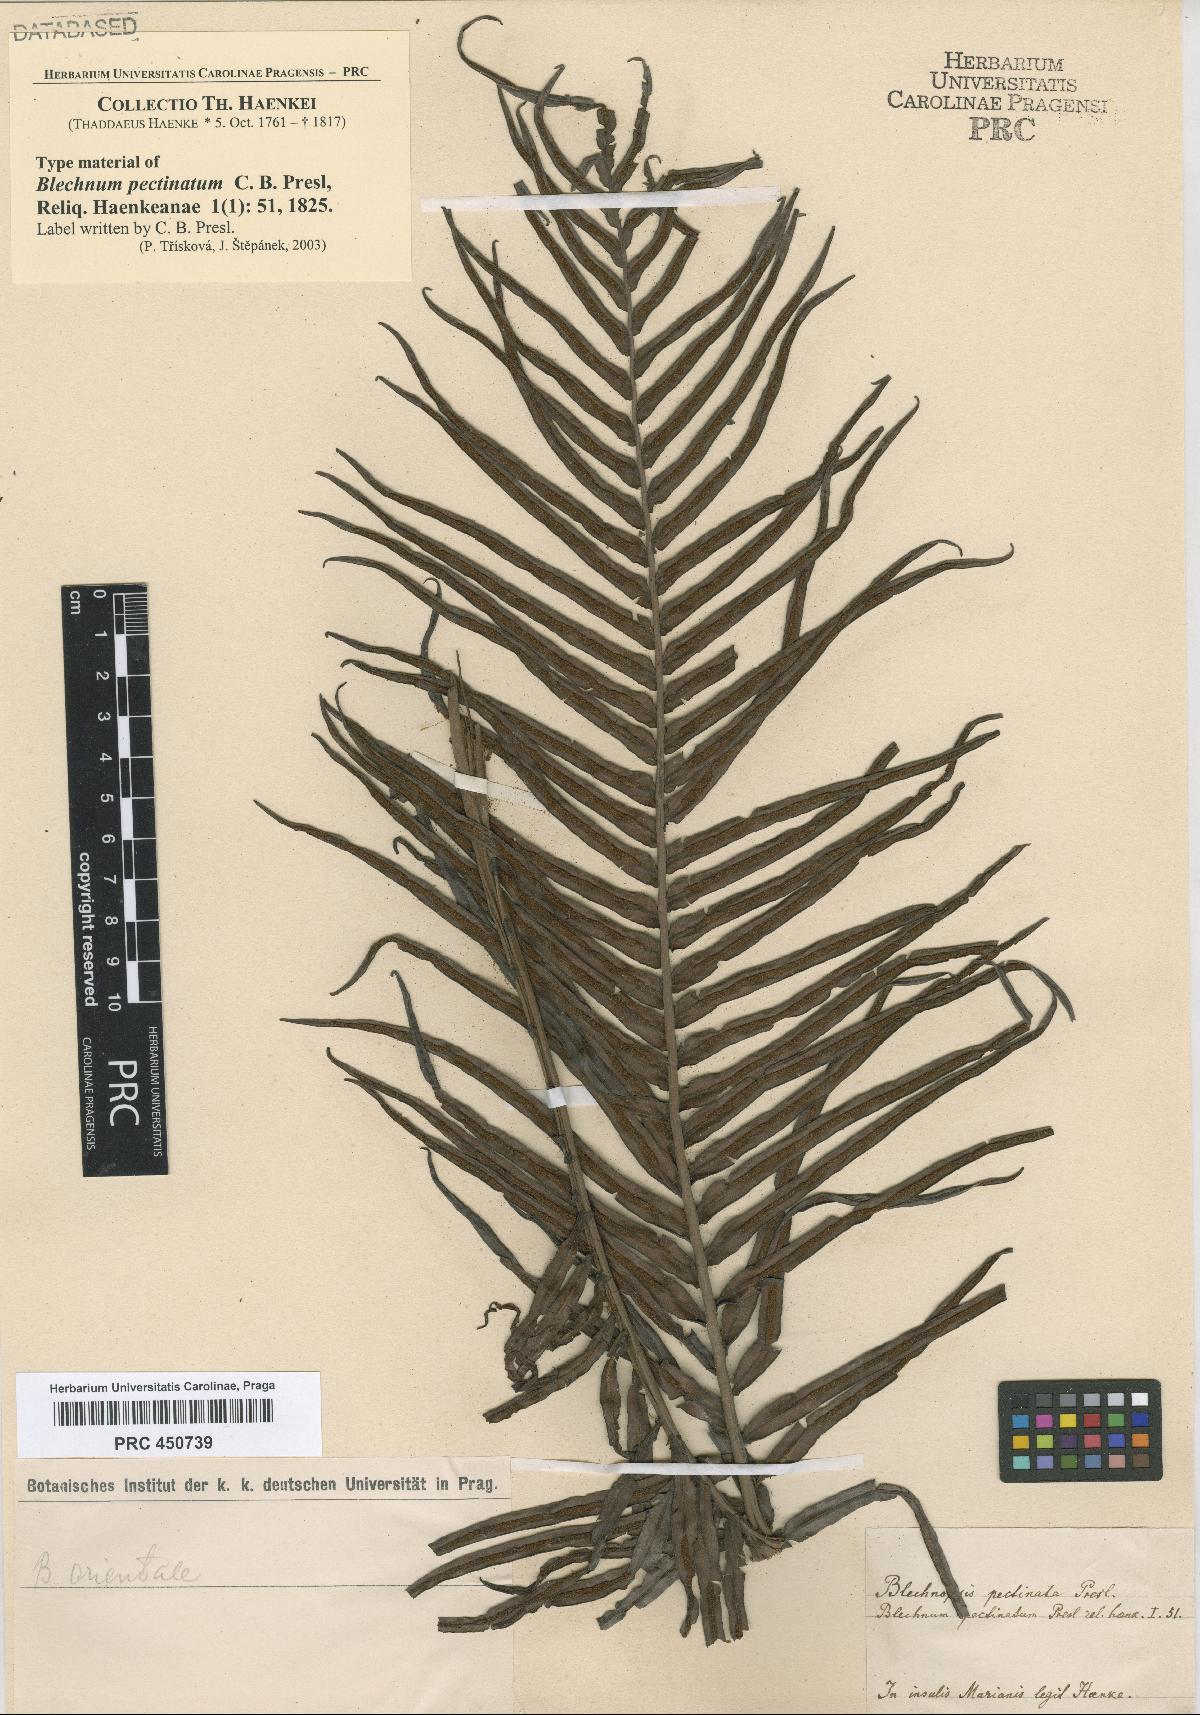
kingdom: Plantae
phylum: Tracheophyta
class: Polypodiopsida
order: Polypodiales
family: Blechnaceae
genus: Blechnopsis
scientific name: Blechnopsis orientalis
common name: Oriental blechnum
